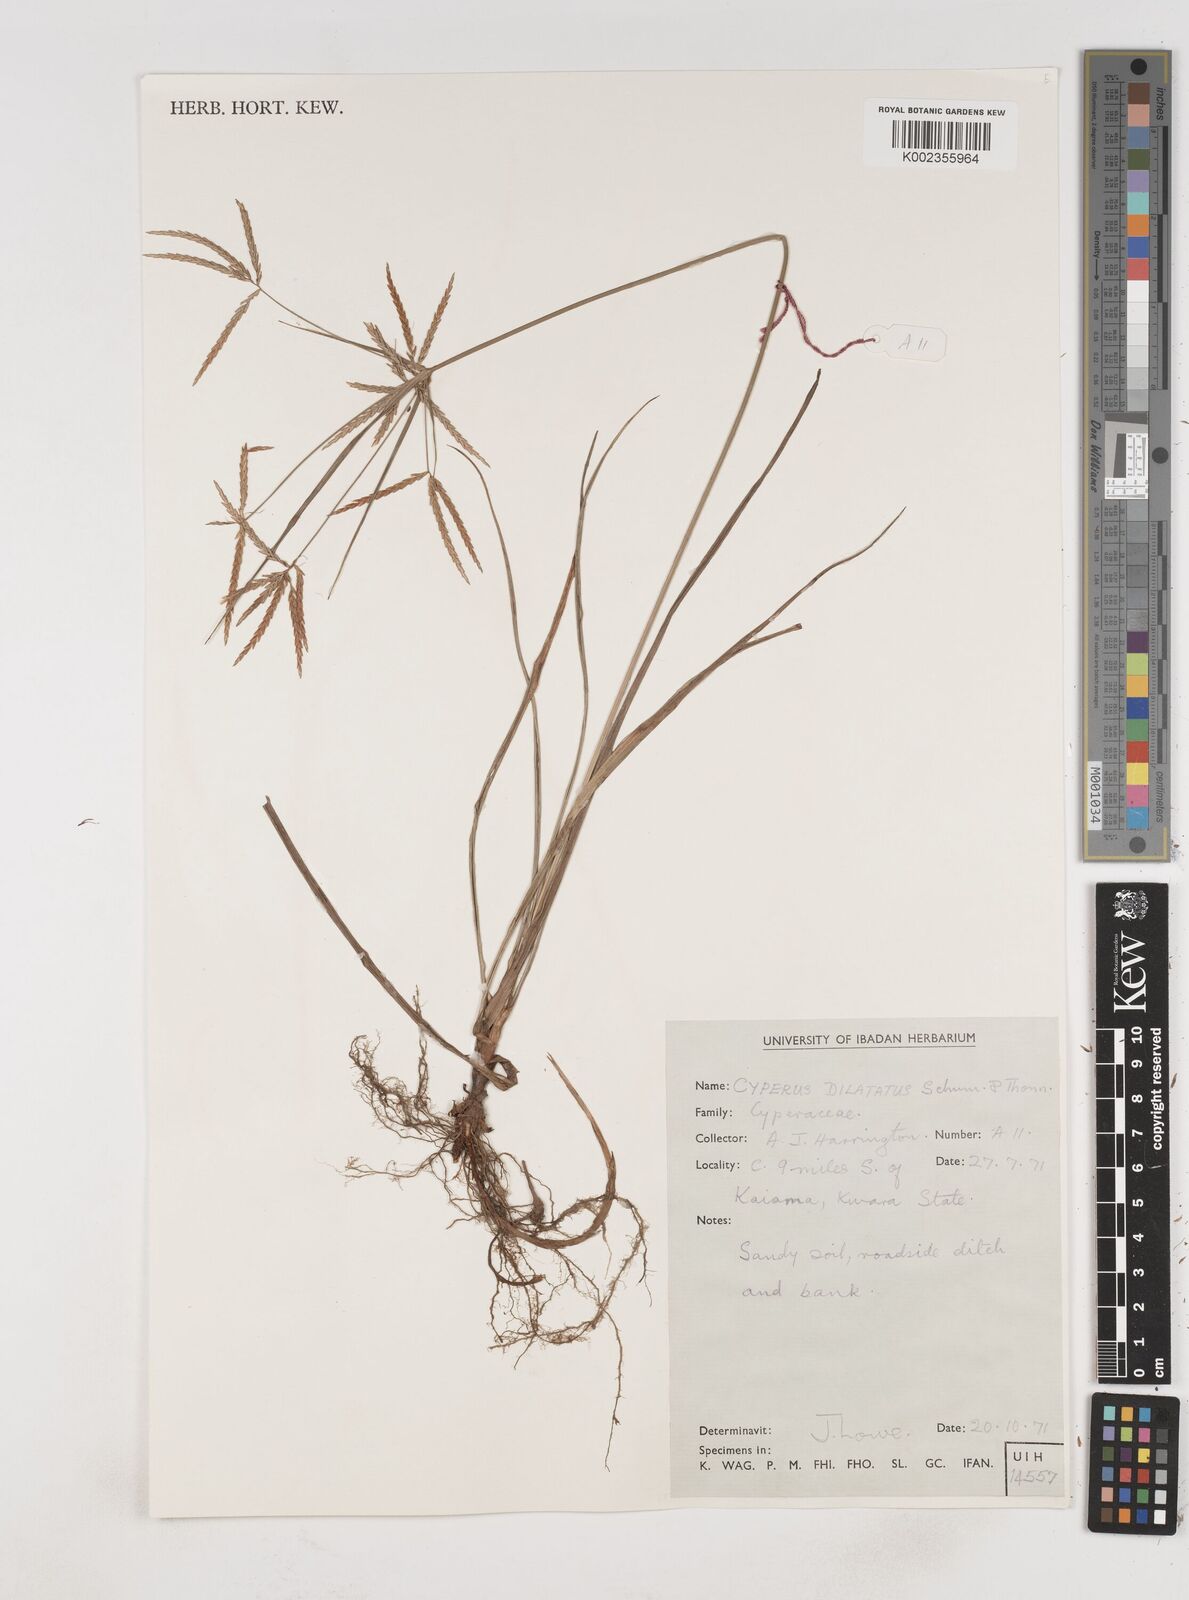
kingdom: Plantae
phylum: Tracheophyta
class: Liliopsida
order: Poales
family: Cyperaceae
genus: Cyperus
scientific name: Cyperus dilatatus
